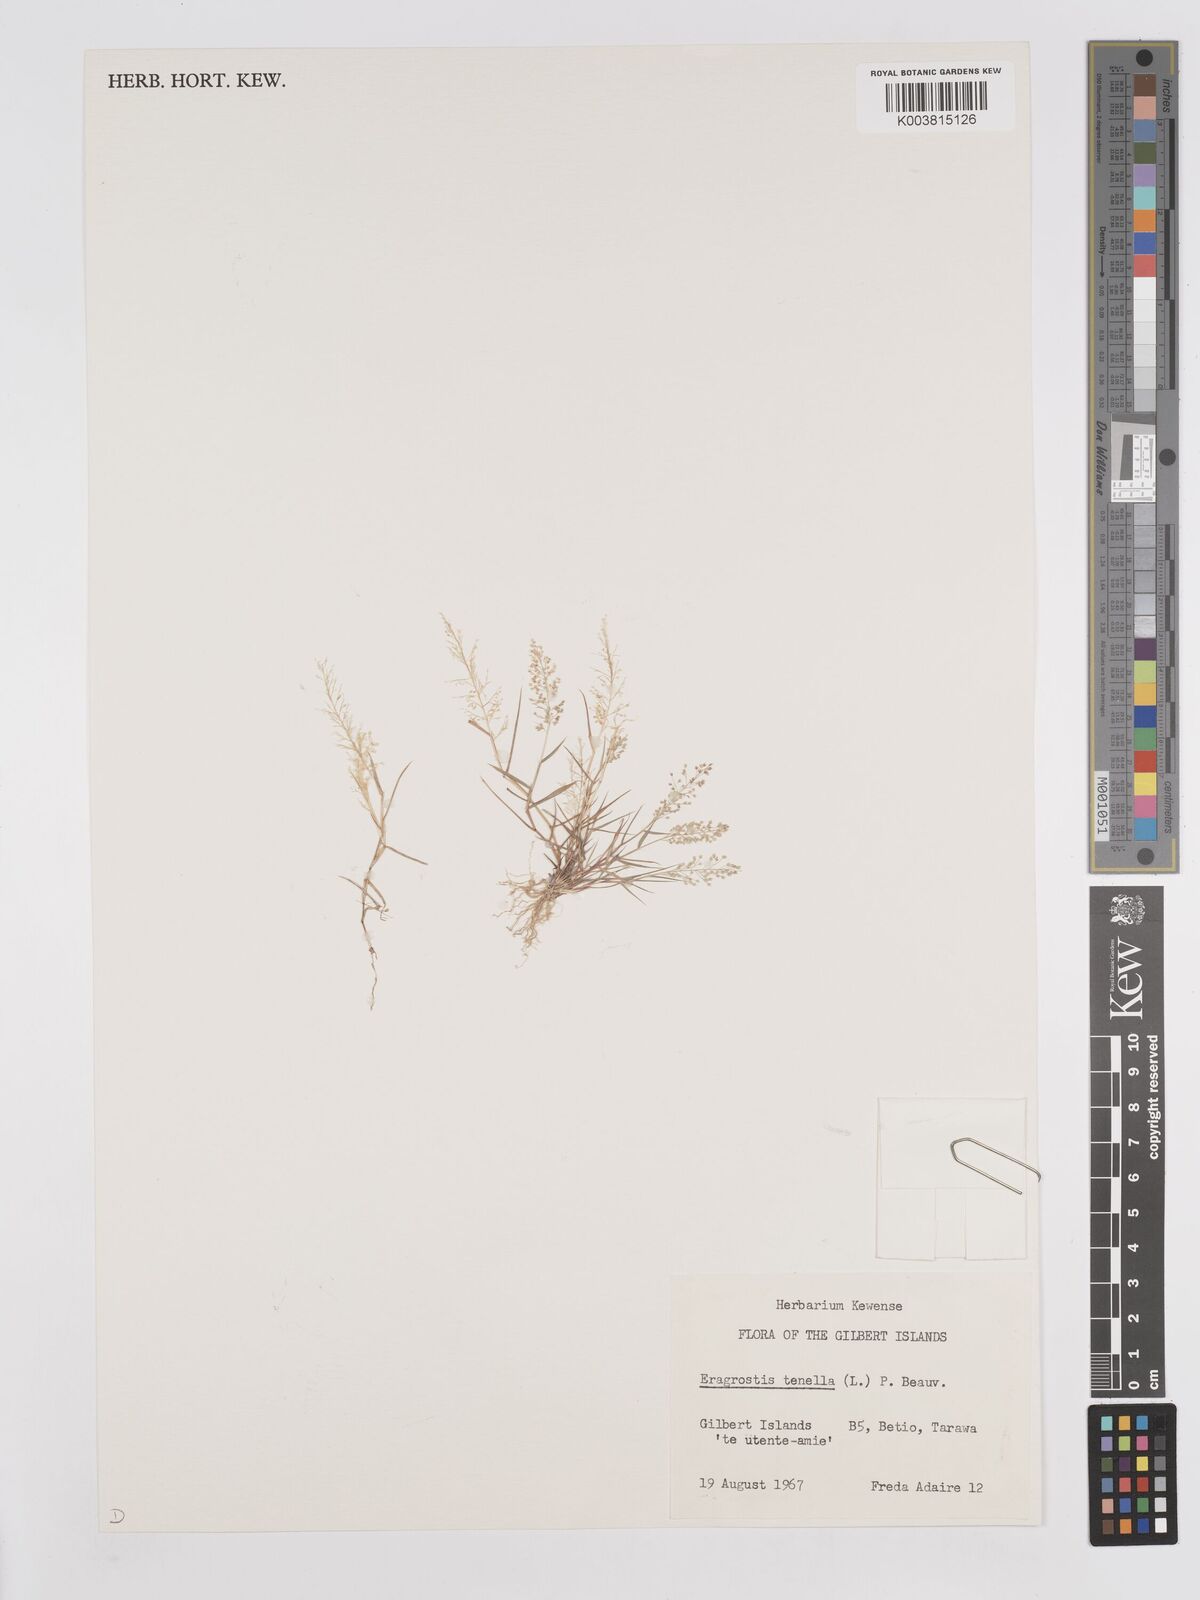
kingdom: Plantae
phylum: Tracheophyta
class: Liliopsida
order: Poales
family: Poaceae
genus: Eragrostis
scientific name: Eragrostis tenella
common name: Japanese lovegrass
